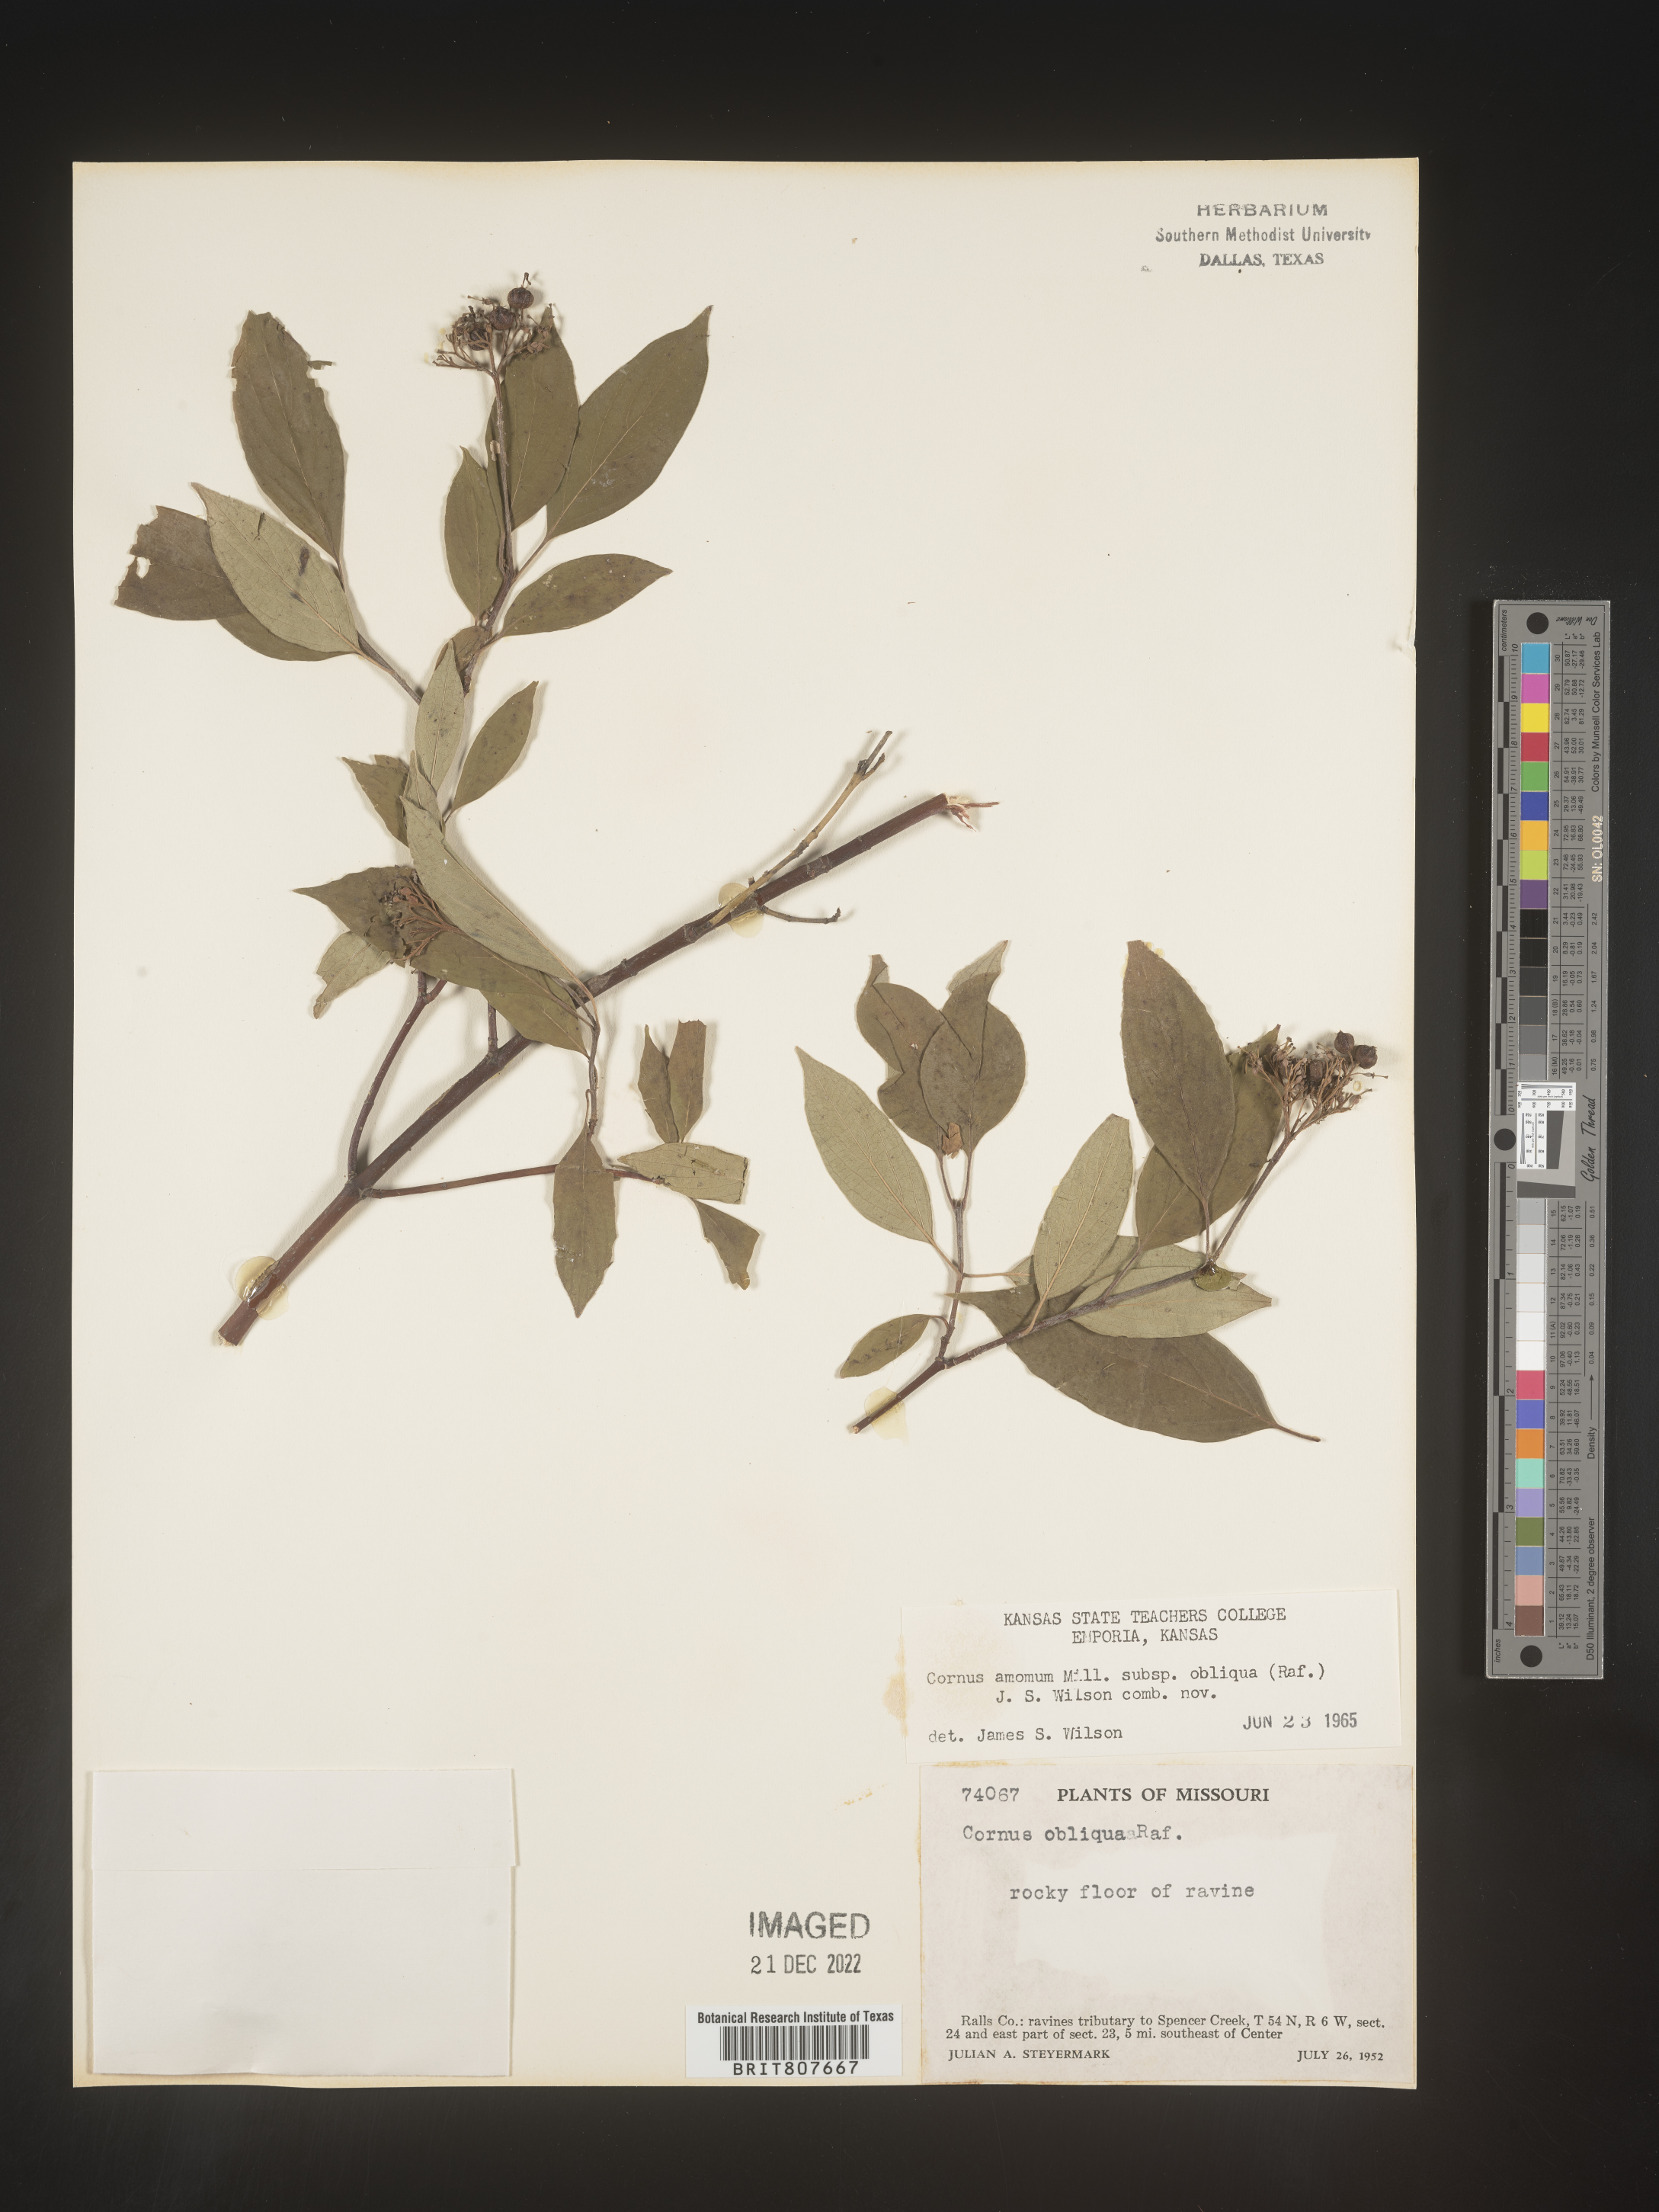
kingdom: Plantae
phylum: Tracheophyta
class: Magnoliopsida
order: Cornales
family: Cornaceae
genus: Cornus
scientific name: Cornus obliqua
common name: Pale dogwood
